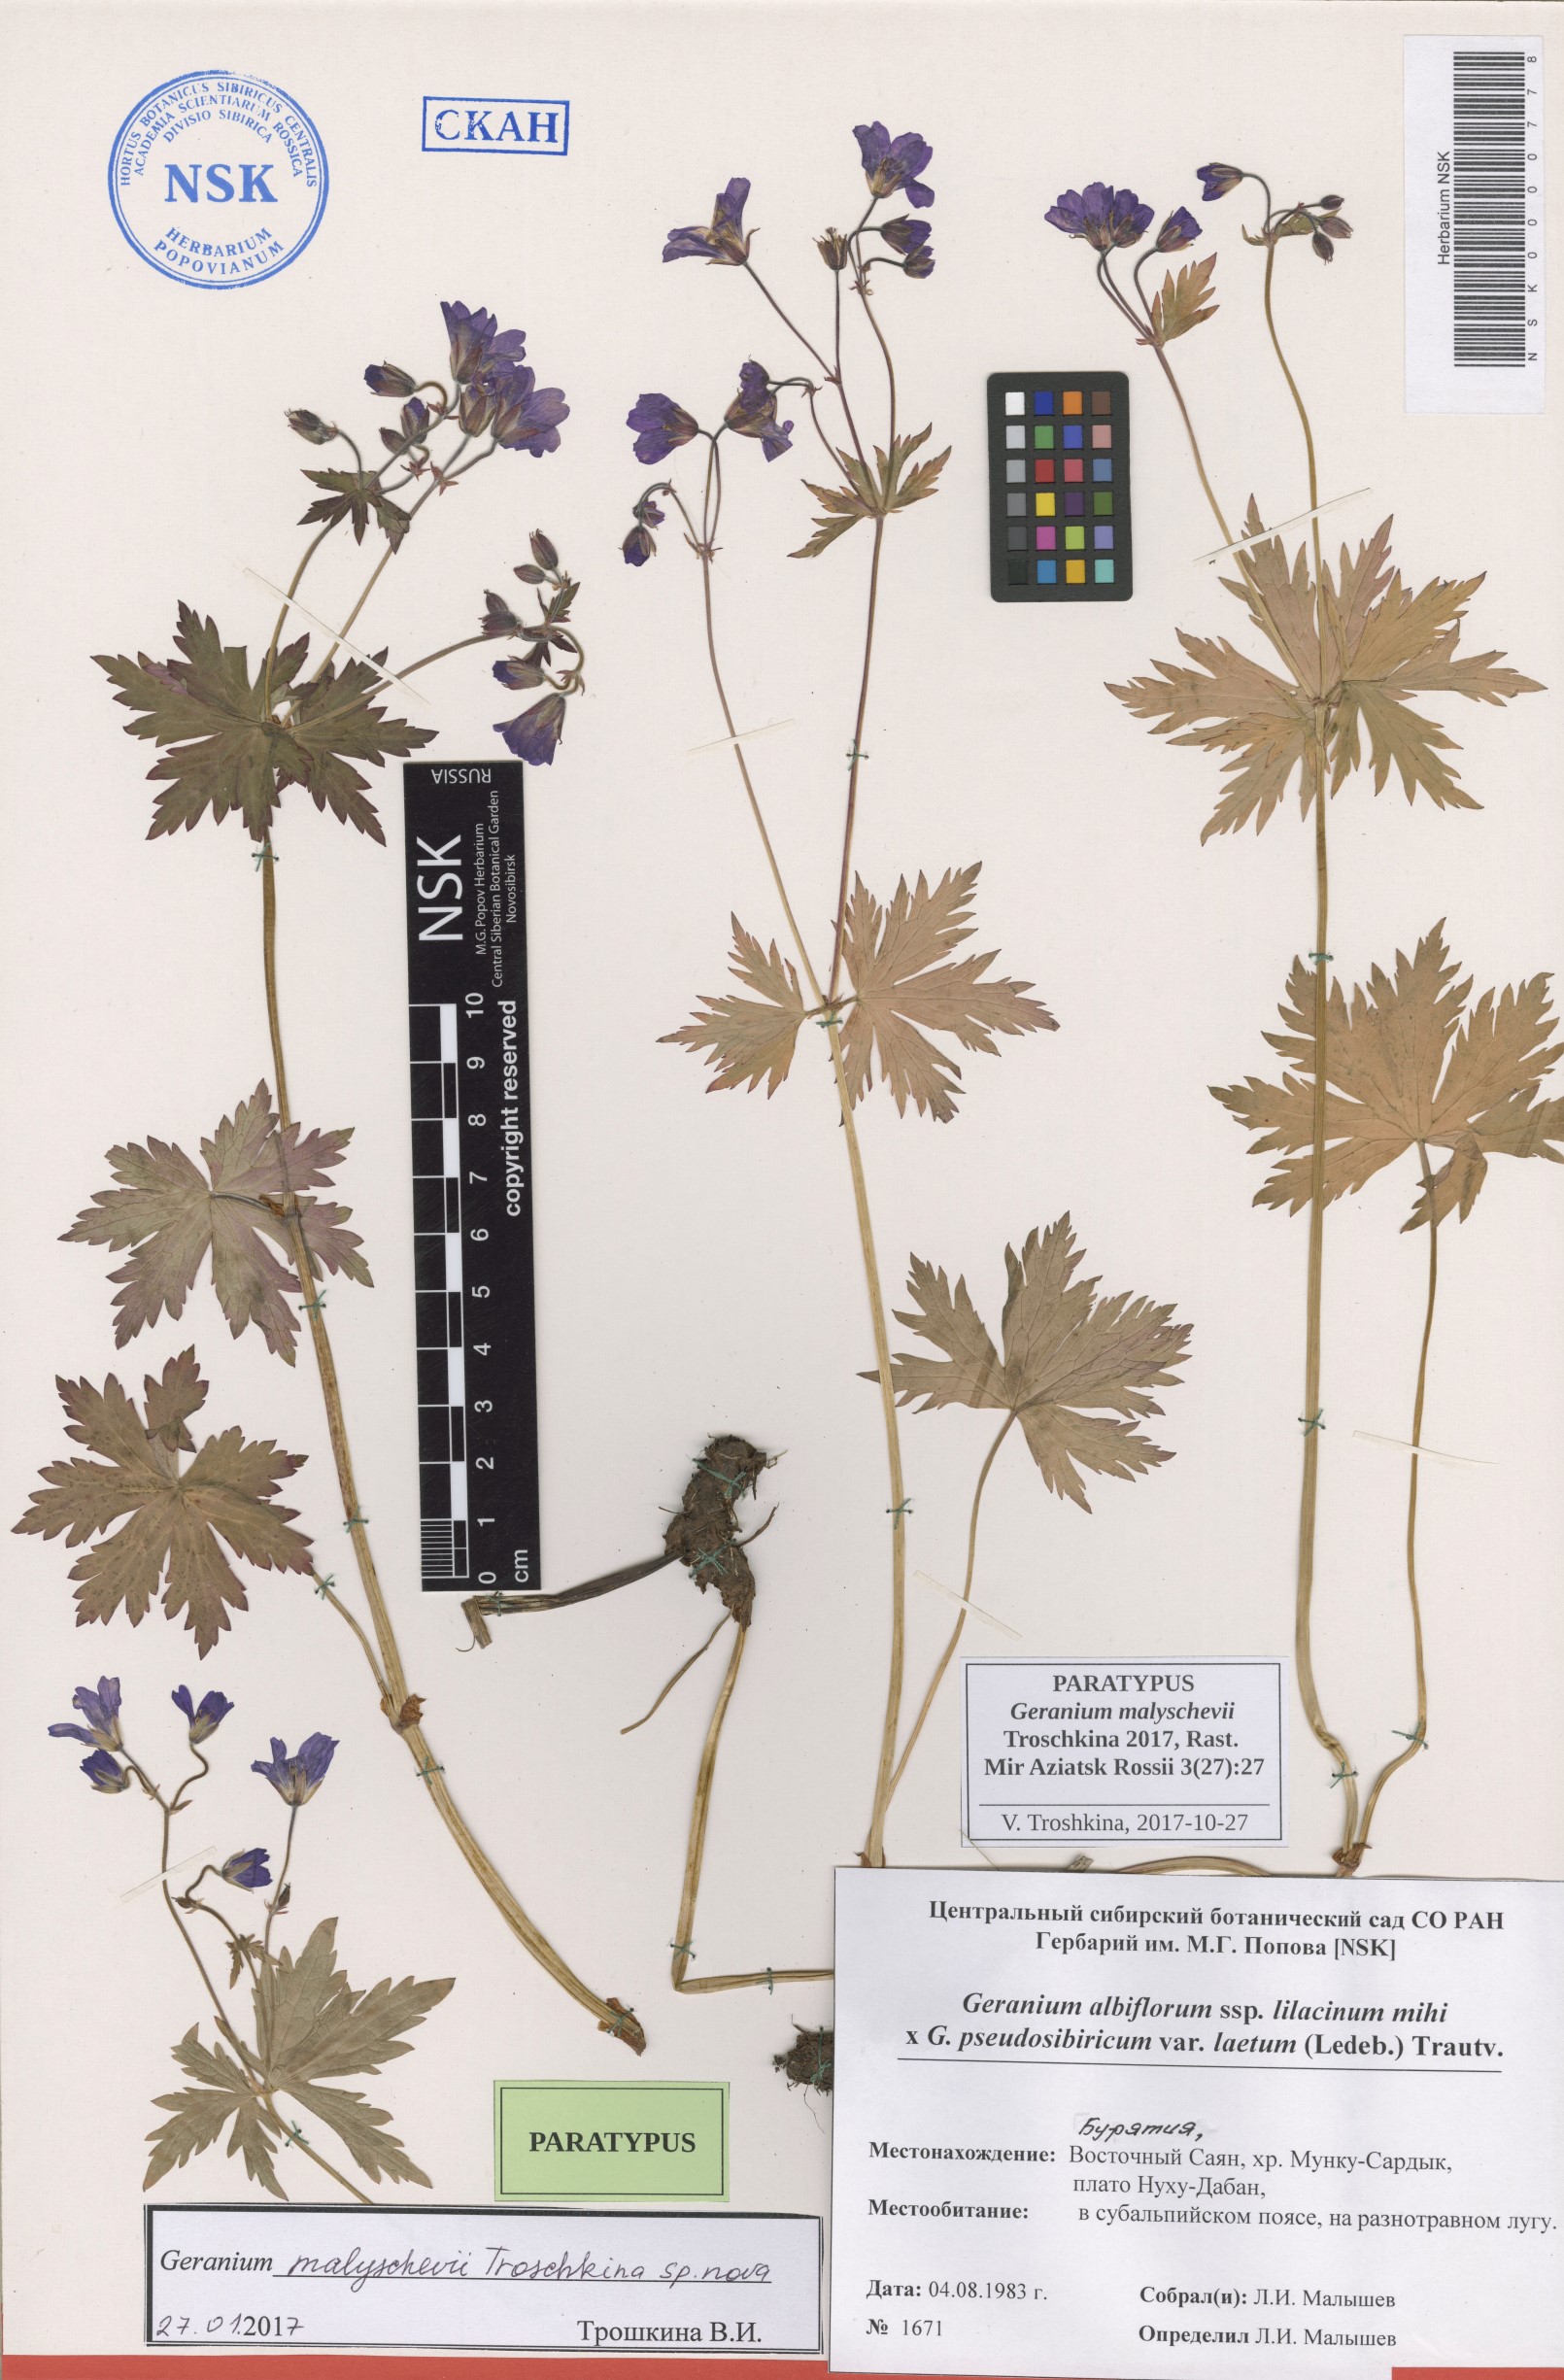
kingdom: Plantae
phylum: Tracheophyta
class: Magnoliopsida
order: Geraniales
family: Geraniaceae
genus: Geranium
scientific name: Geranium malyschevii
